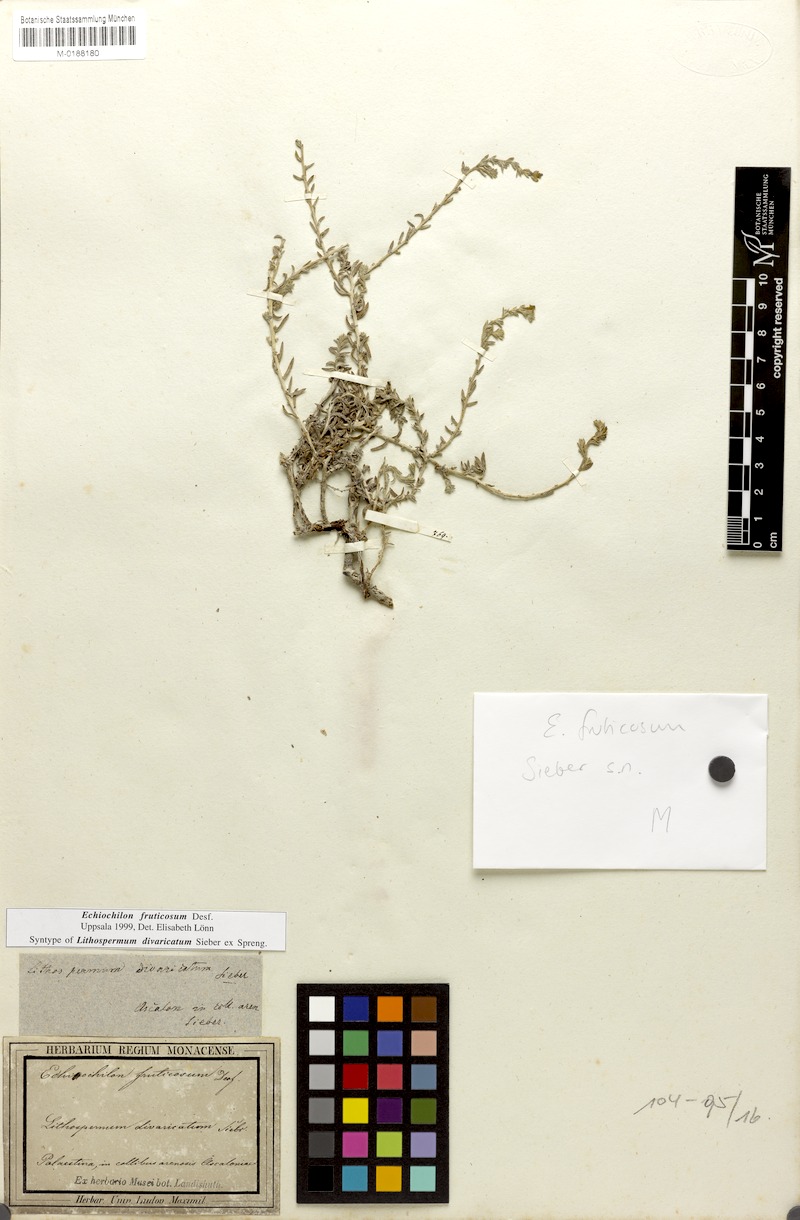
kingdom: Plantae
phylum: Tracheophyta
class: Magnoliopsida
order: Boraginales
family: Boraginaceae
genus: Echiochilon
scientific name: Echiochilon fruticosum
